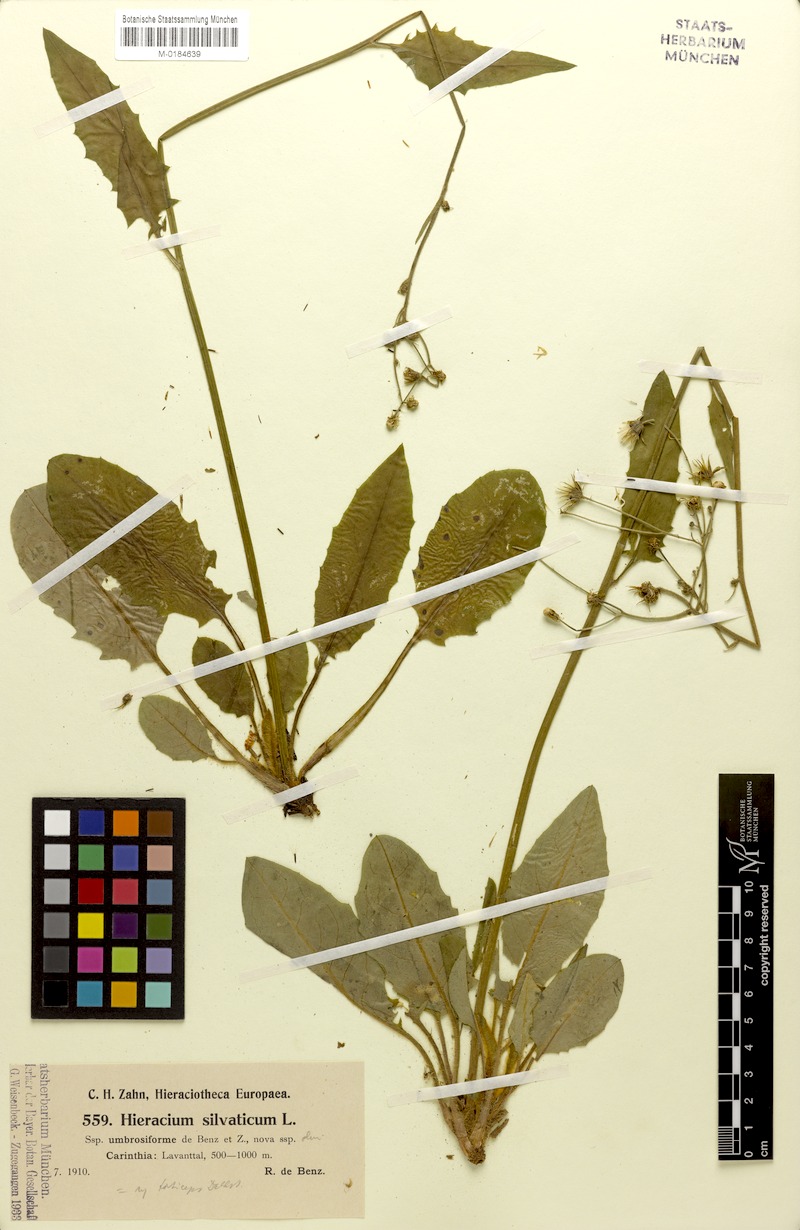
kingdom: Plantae
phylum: Tracheophyta
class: Magnoliopsida
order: Asterales
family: Asteraceae
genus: Hieracium
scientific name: Hieracium murorum
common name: Wall hawkweed
